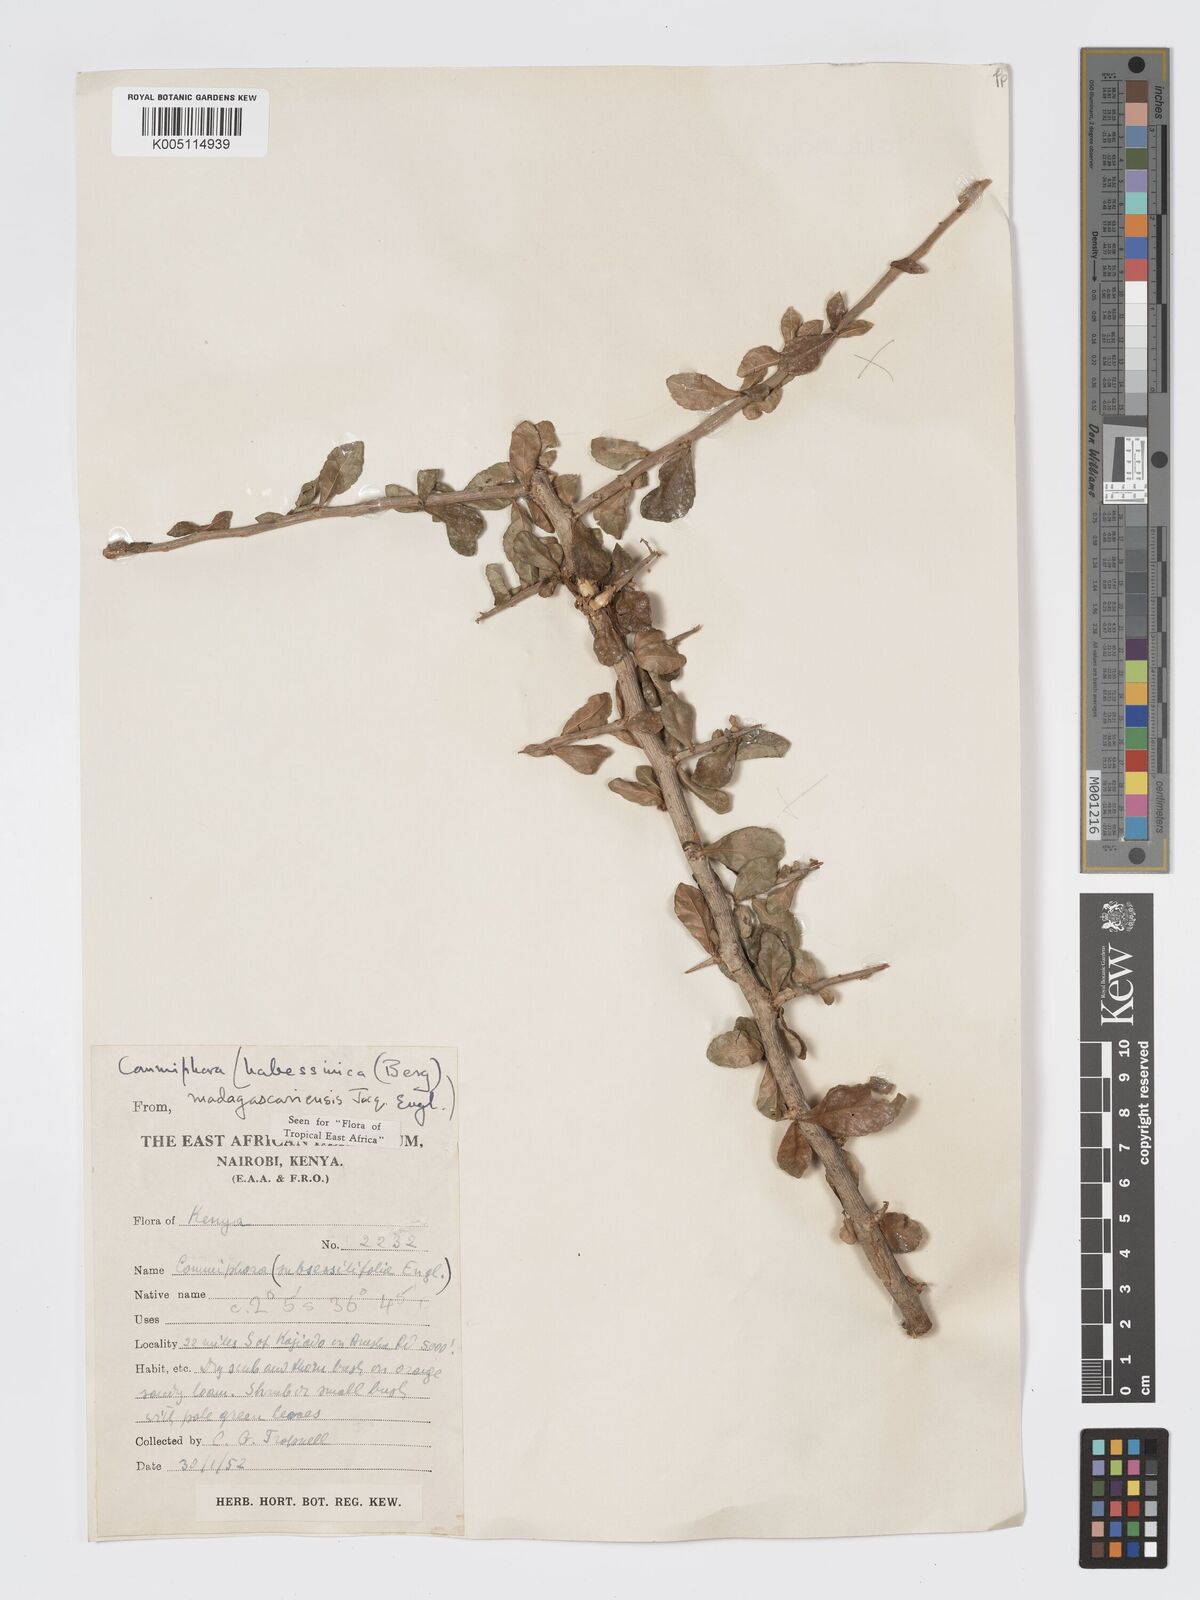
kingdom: Plantae
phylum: Tracheophyta
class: Magnoliopsida
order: Sapindales
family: Burseraceae
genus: Commiphora
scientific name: Commiphora kua
